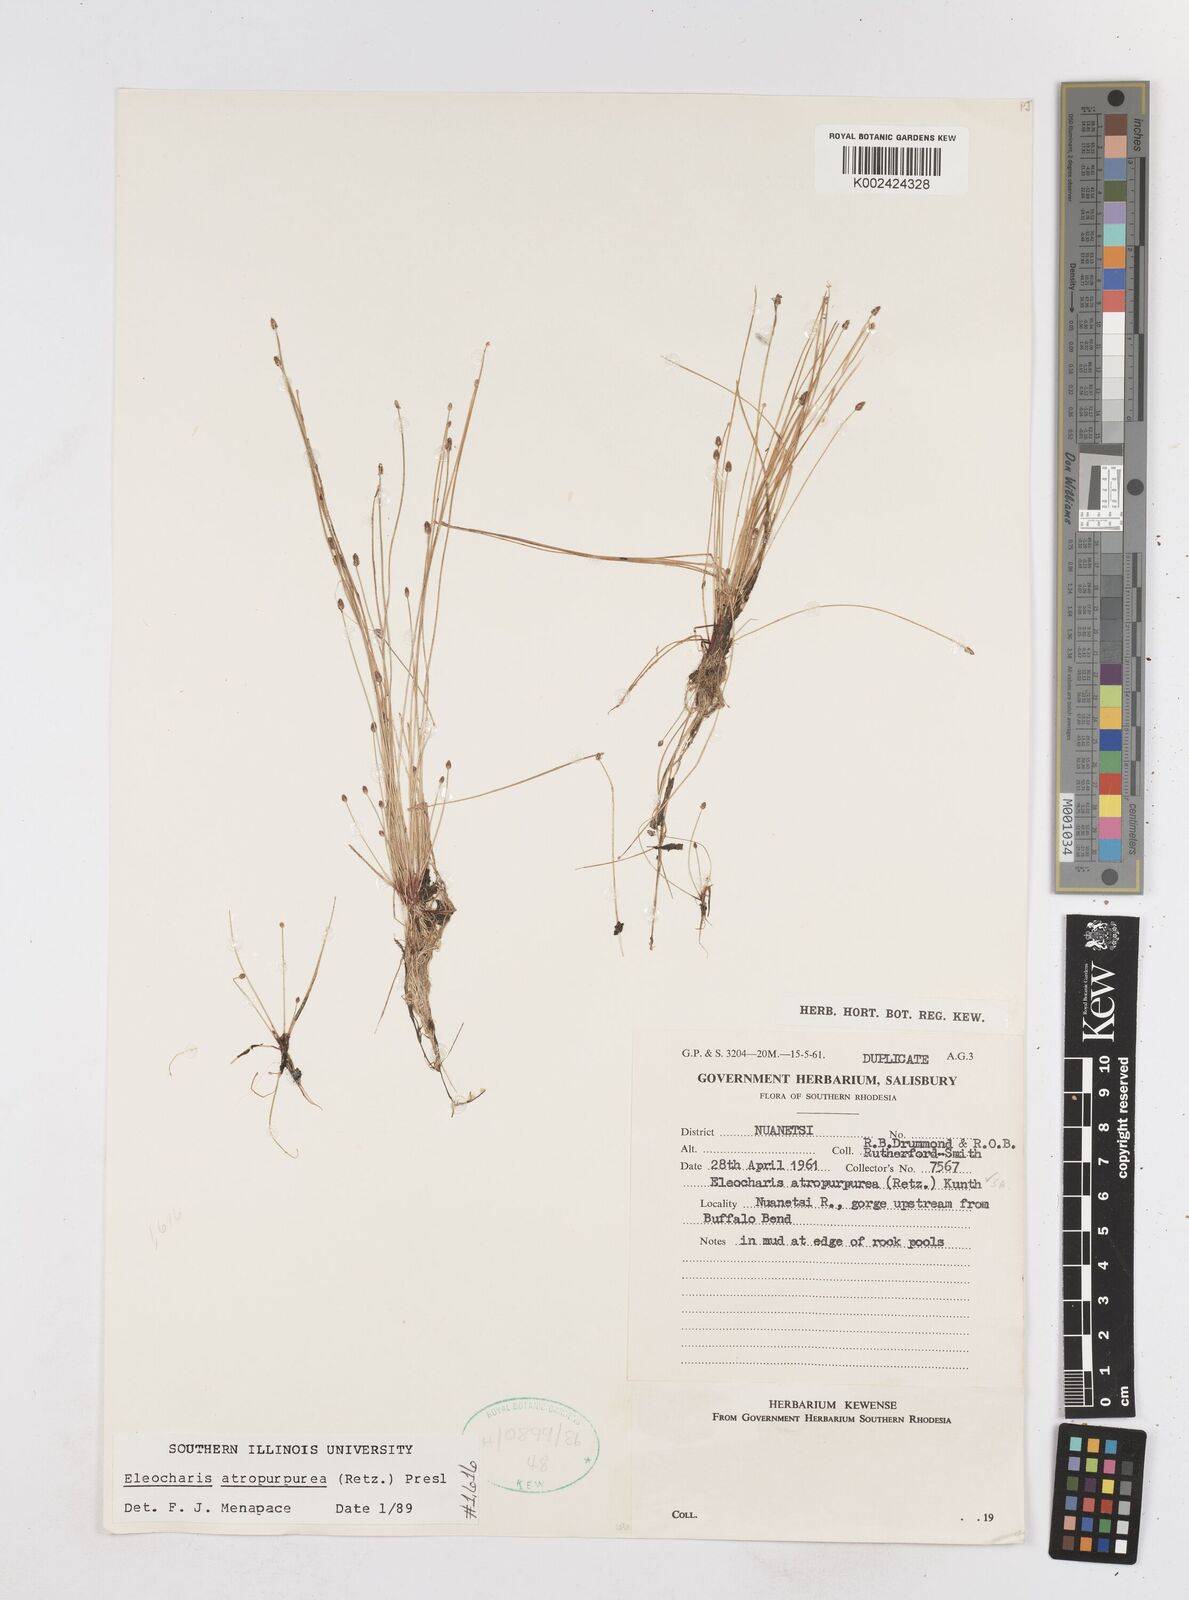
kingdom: Plantae
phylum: Tracheophyta
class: Liliopsida
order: Poales
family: Cyperaceae
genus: Eleocharis
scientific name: Eleocharis atropurpurea
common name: Purple spikerush
